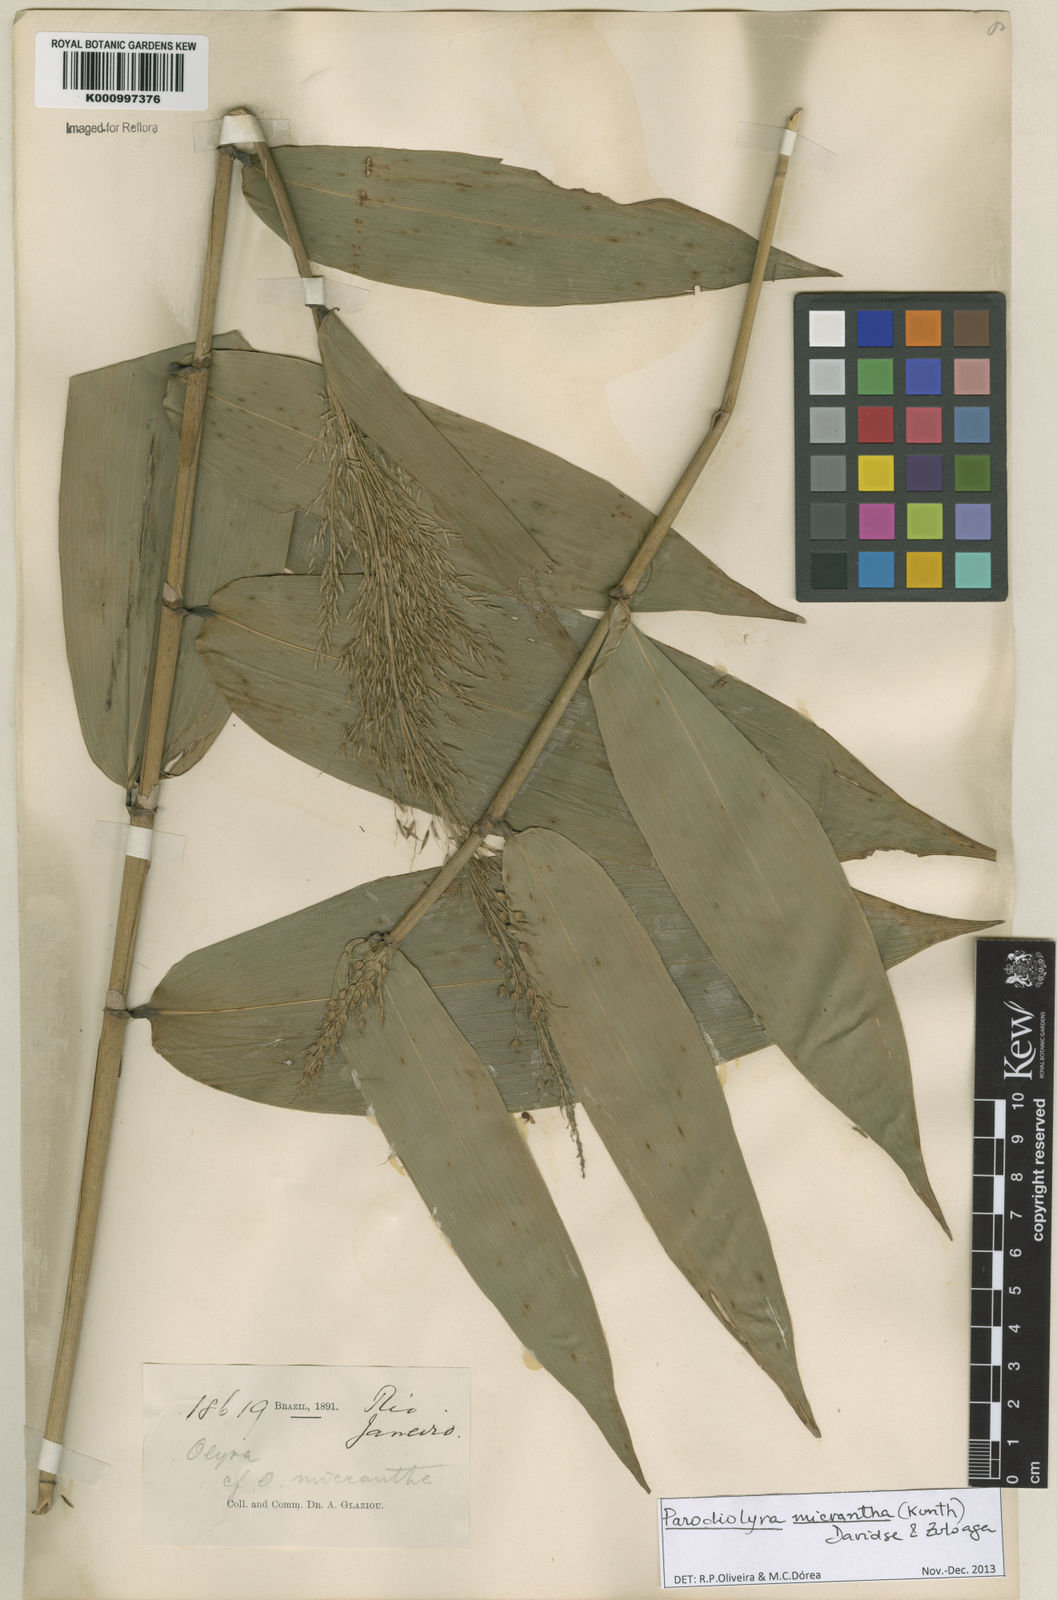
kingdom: Plantae
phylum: Tracheophyta
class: Liliopsida
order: Poales
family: Poaceae
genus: Taquara
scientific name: Taquara micrantha
